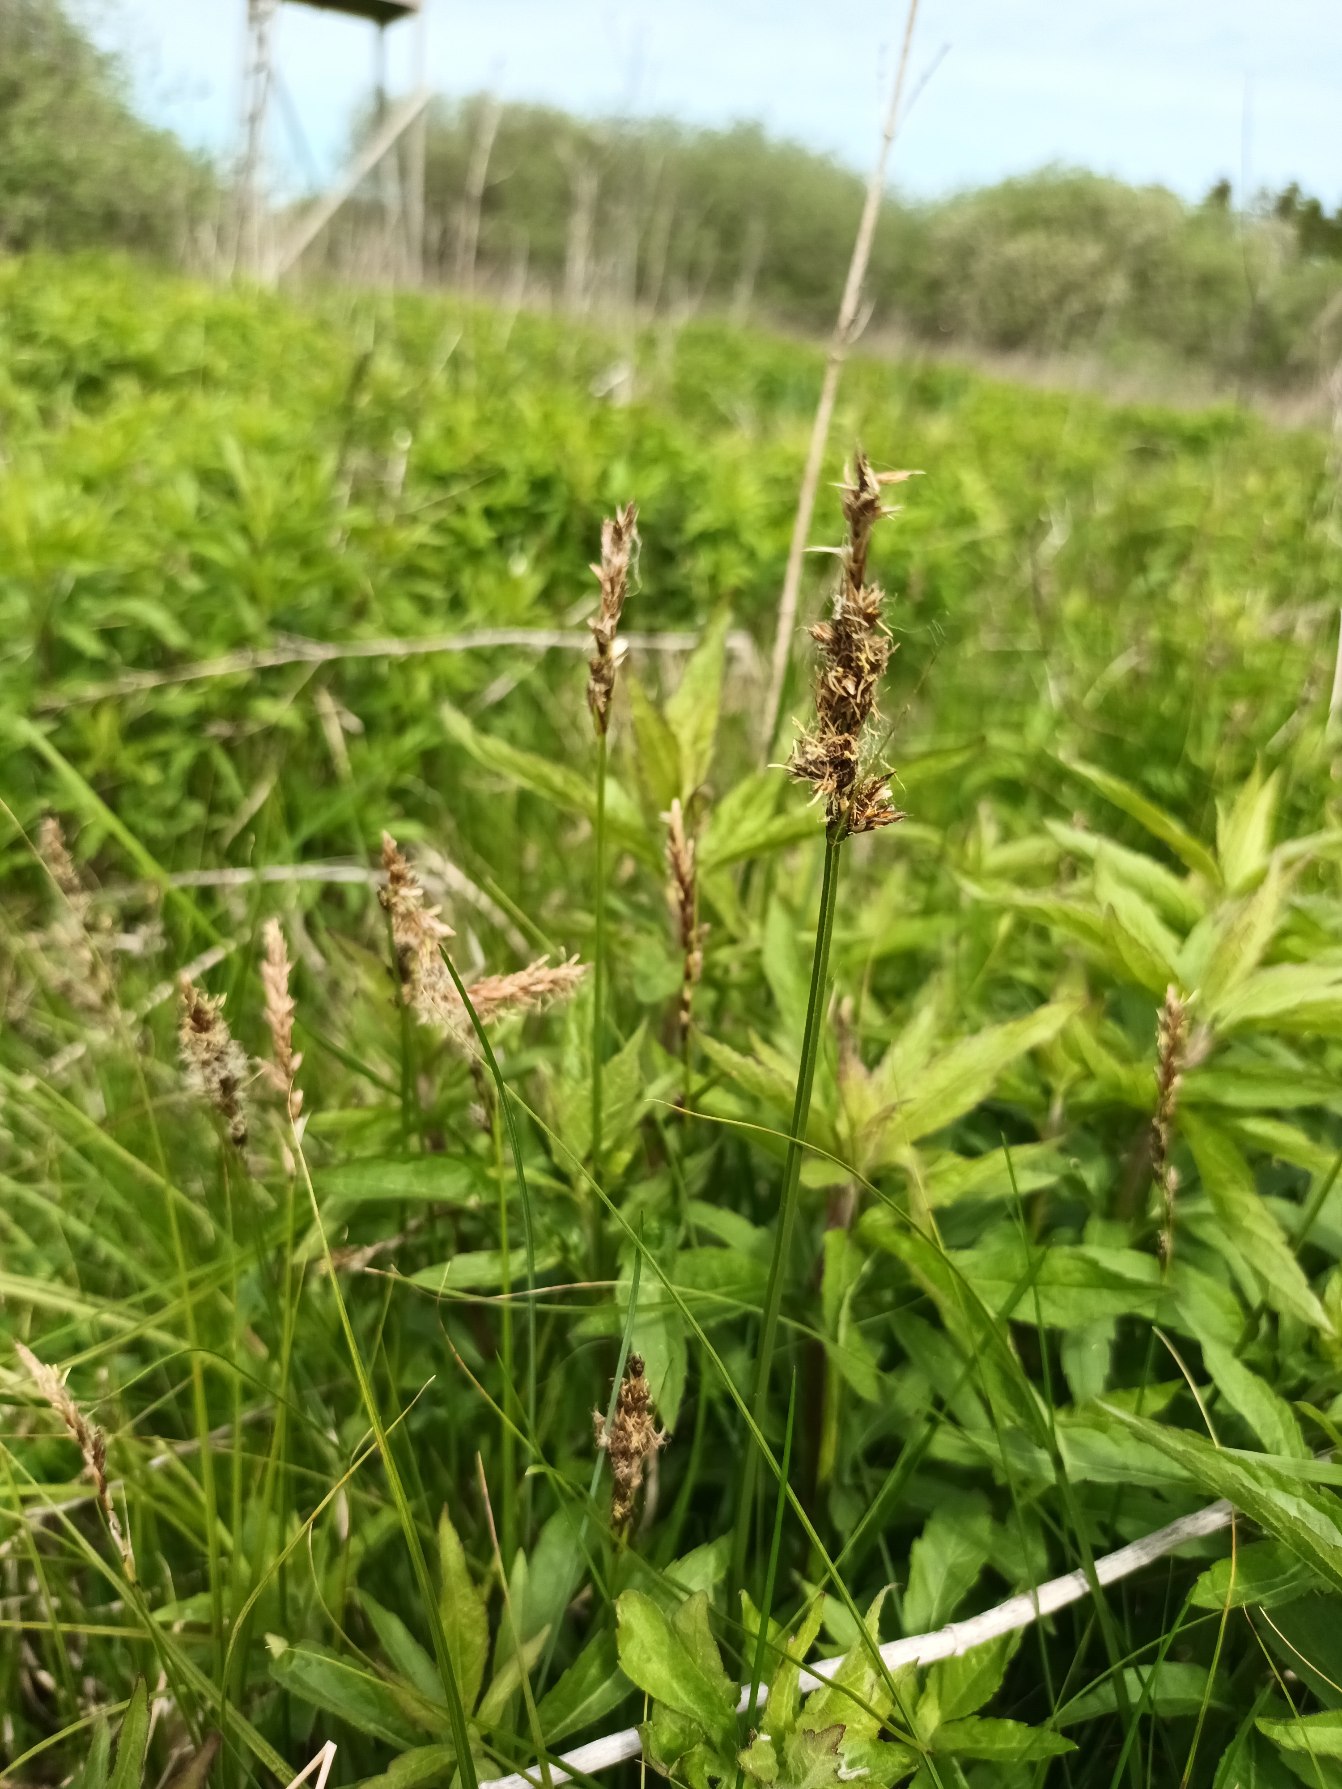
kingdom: Plantae
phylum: Tracheophyta
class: Liliopsida
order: Poales
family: Cyperaceae
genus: Carex
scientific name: Carex disticha
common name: Toradet star
